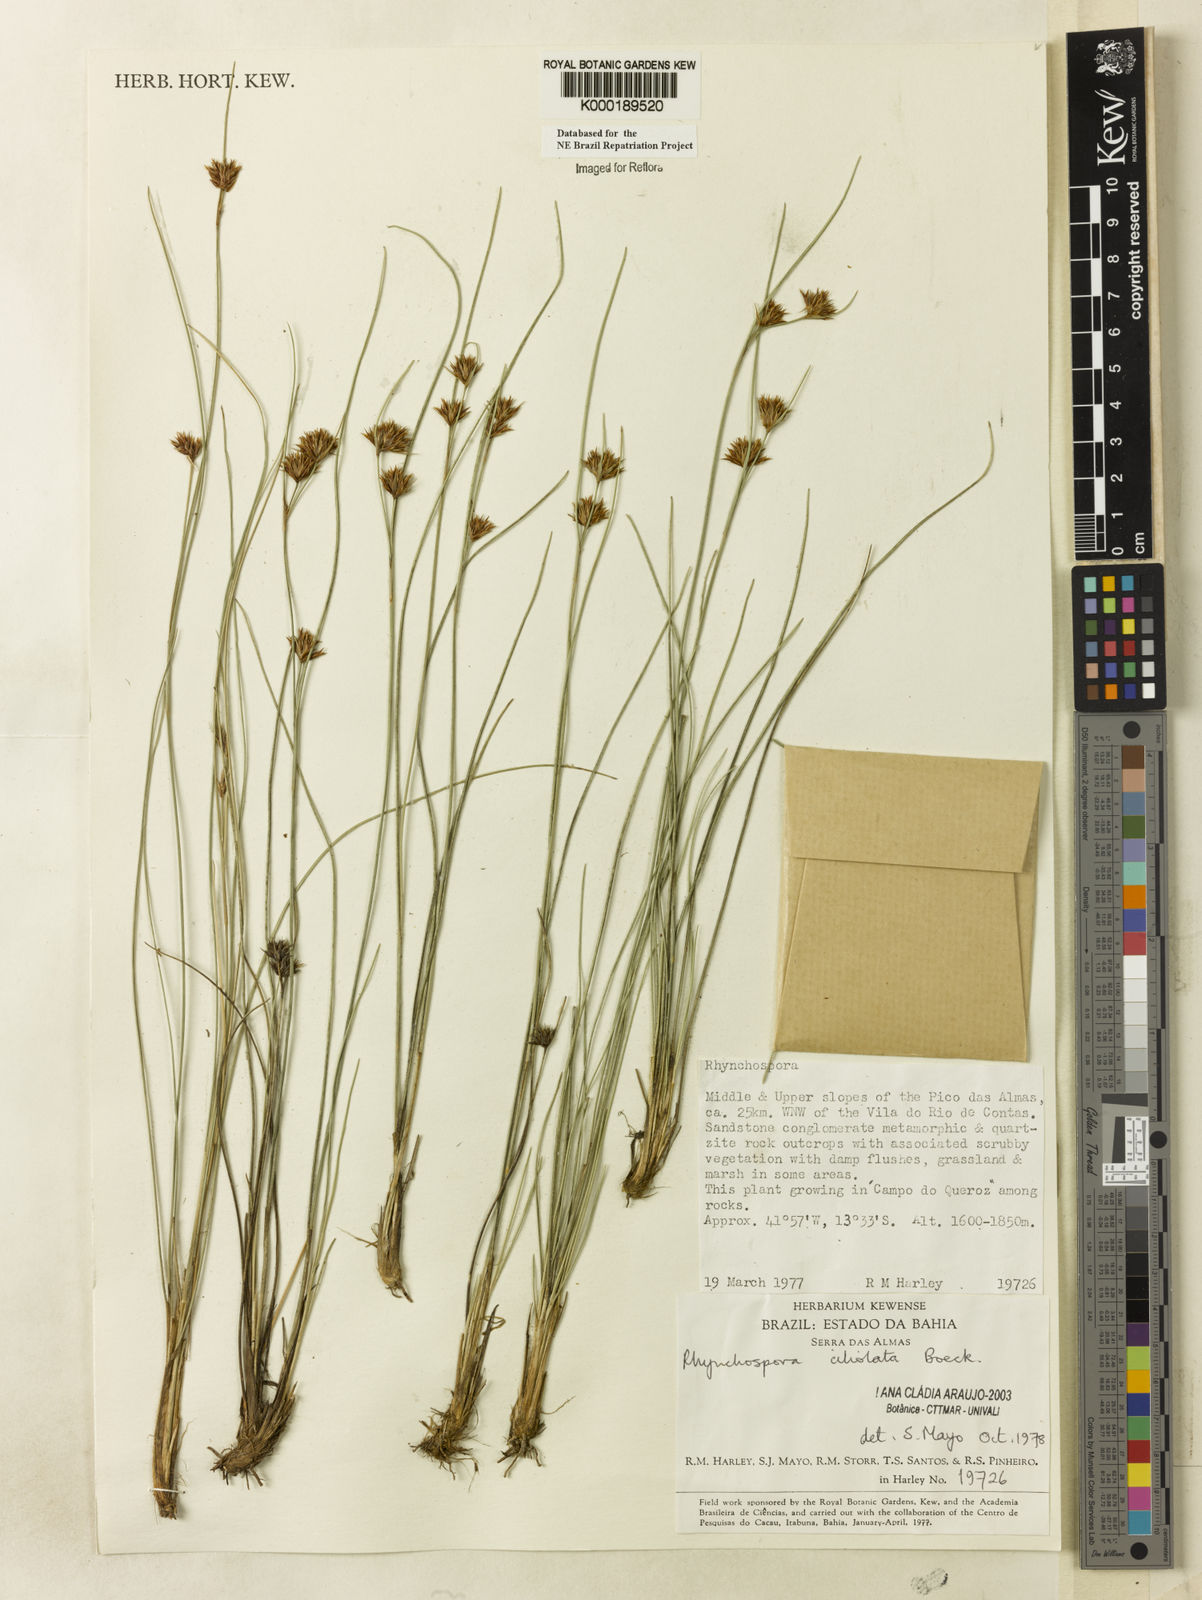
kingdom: Plantae
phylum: Tracheophyta
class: Liliopsida
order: Poales
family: Cyperaceae
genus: Rhynchospora
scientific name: Rhynchospora ciliolata
